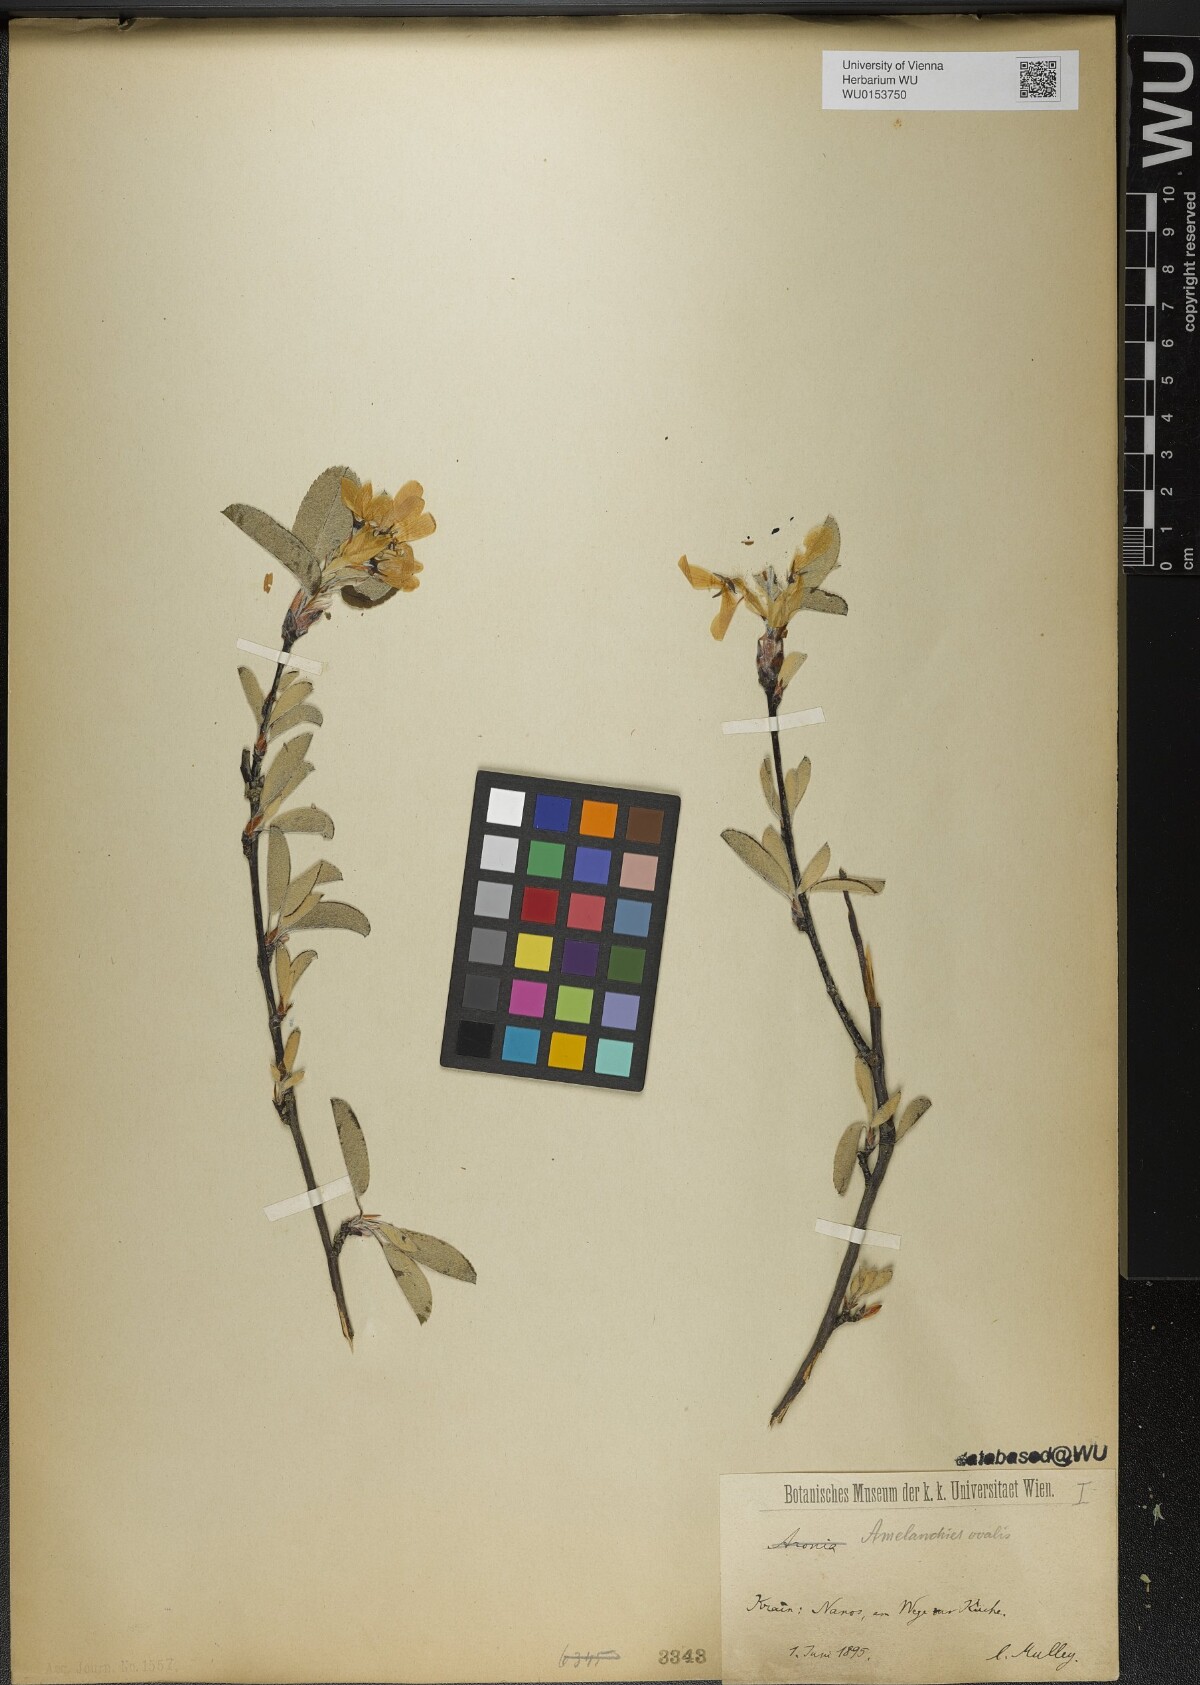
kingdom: Plantae
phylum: Tracheophyta
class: Magnoliopsida
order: Rosales
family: Rosaceae
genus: Amelanchier
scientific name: Amelanchier ovalis
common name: Serviceberry
